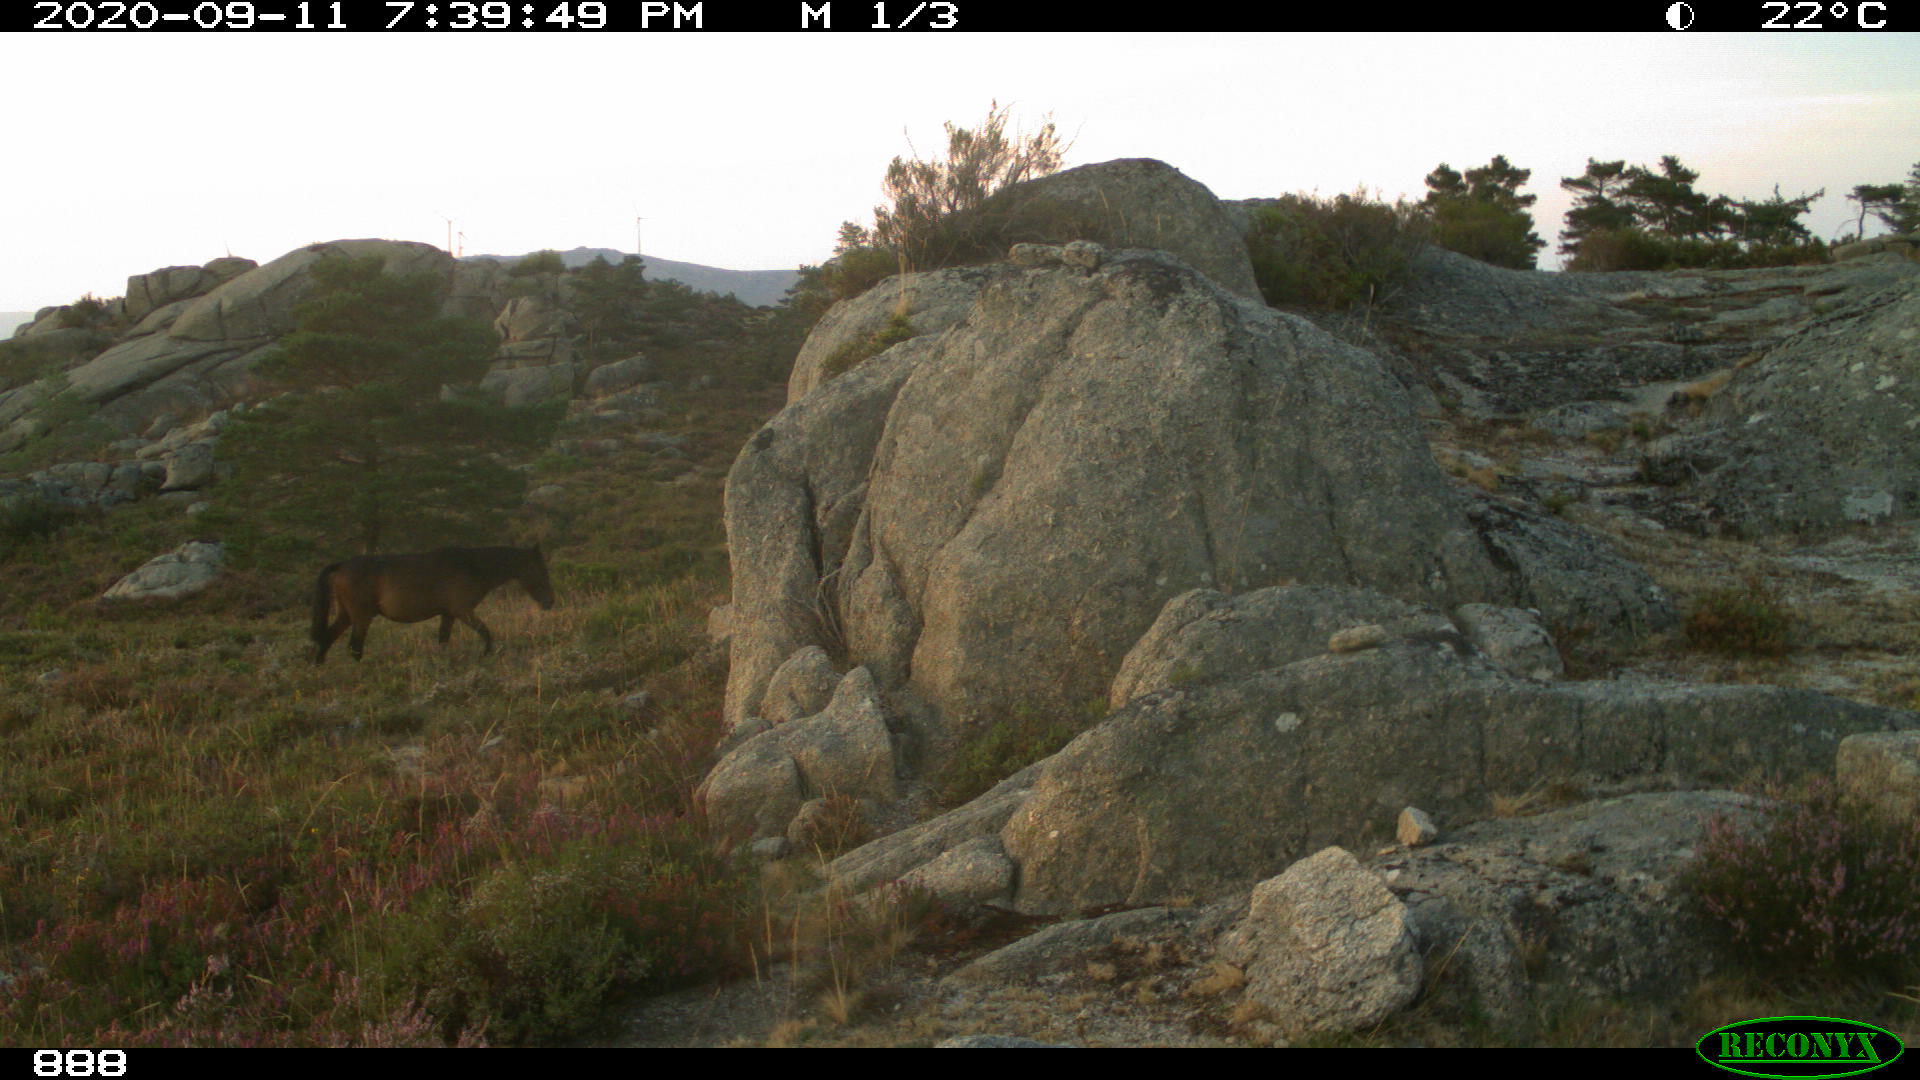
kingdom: Animalia
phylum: Chordata
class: Mammalia
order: Perissodactyla
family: Equidae
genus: Equus
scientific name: Equus caballus
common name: Horse
